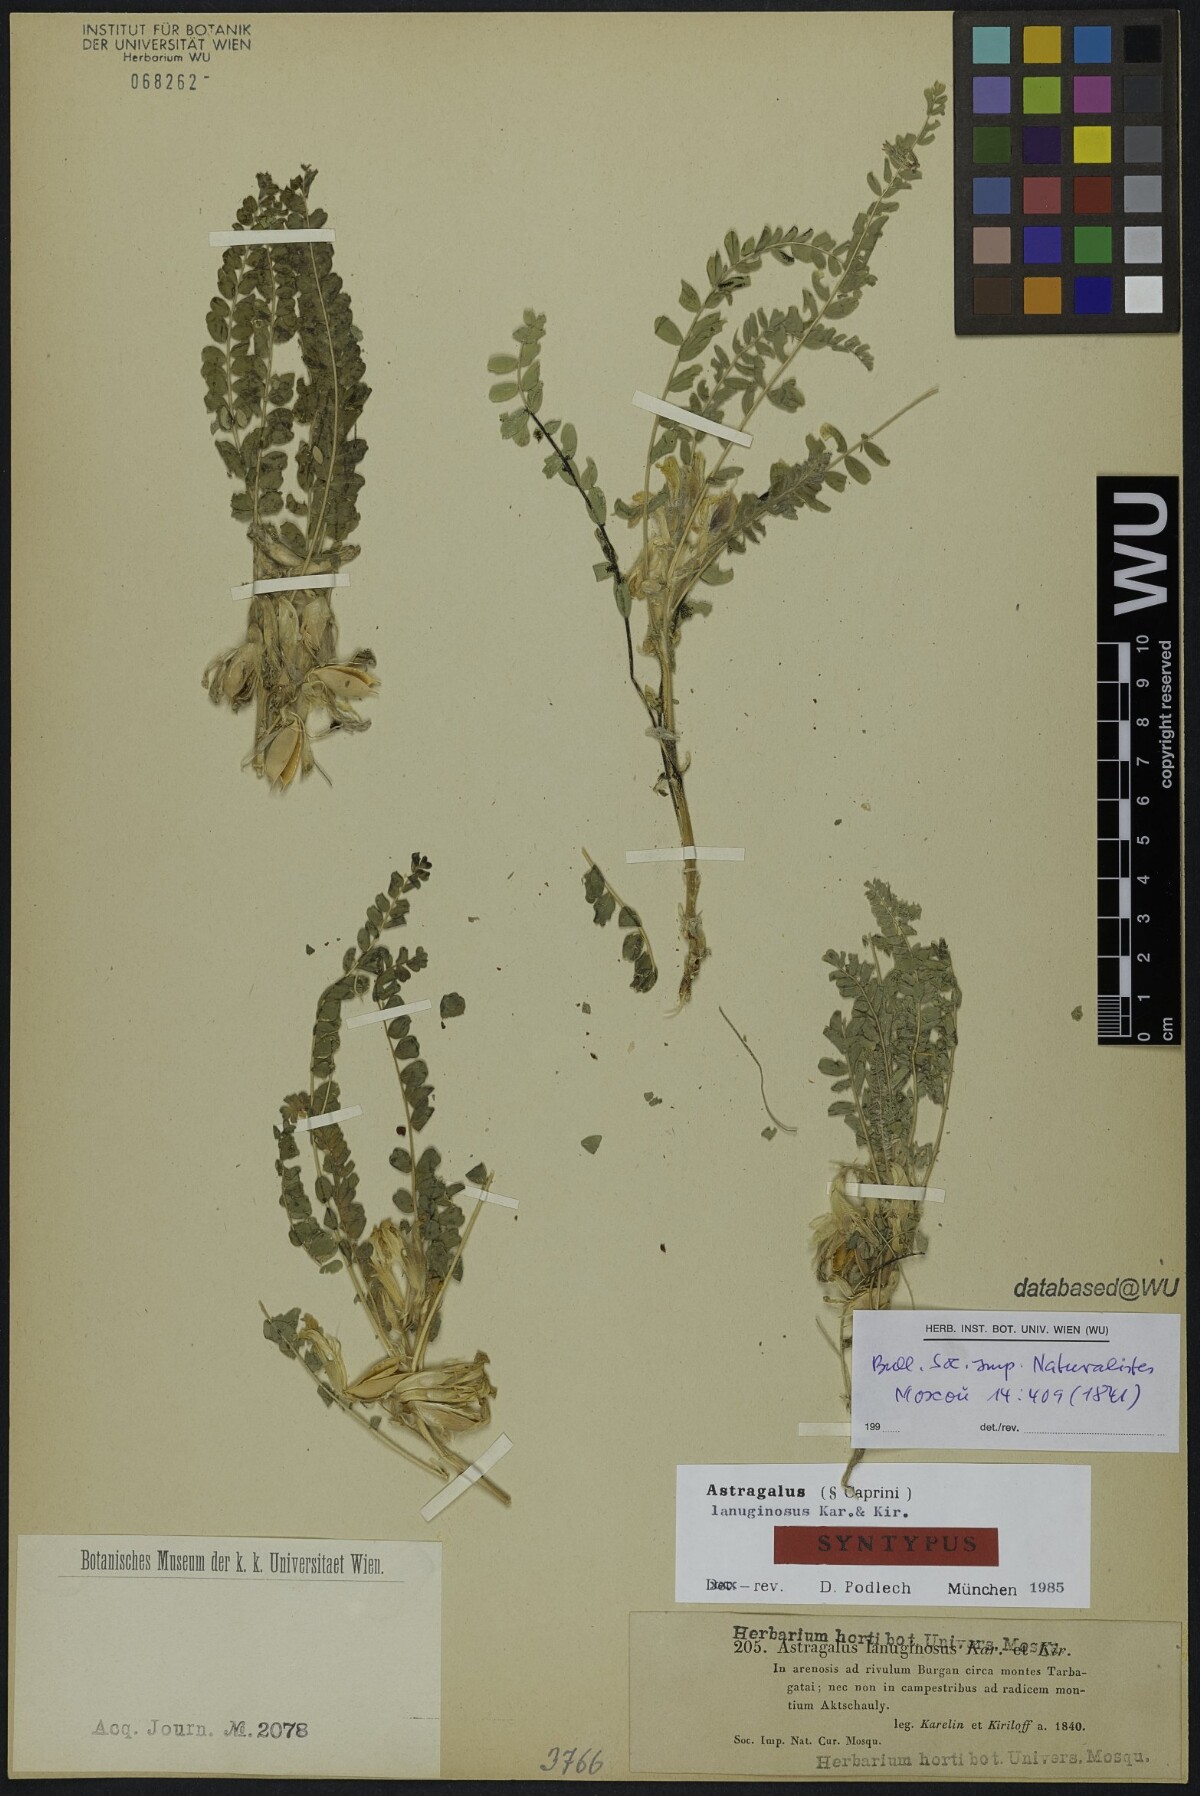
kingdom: Plantae
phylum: Tracheophyta
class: Magnoliopsida
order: Fabales
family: Fabaceae
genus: Astragalus
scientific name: Astragalus larvatus
